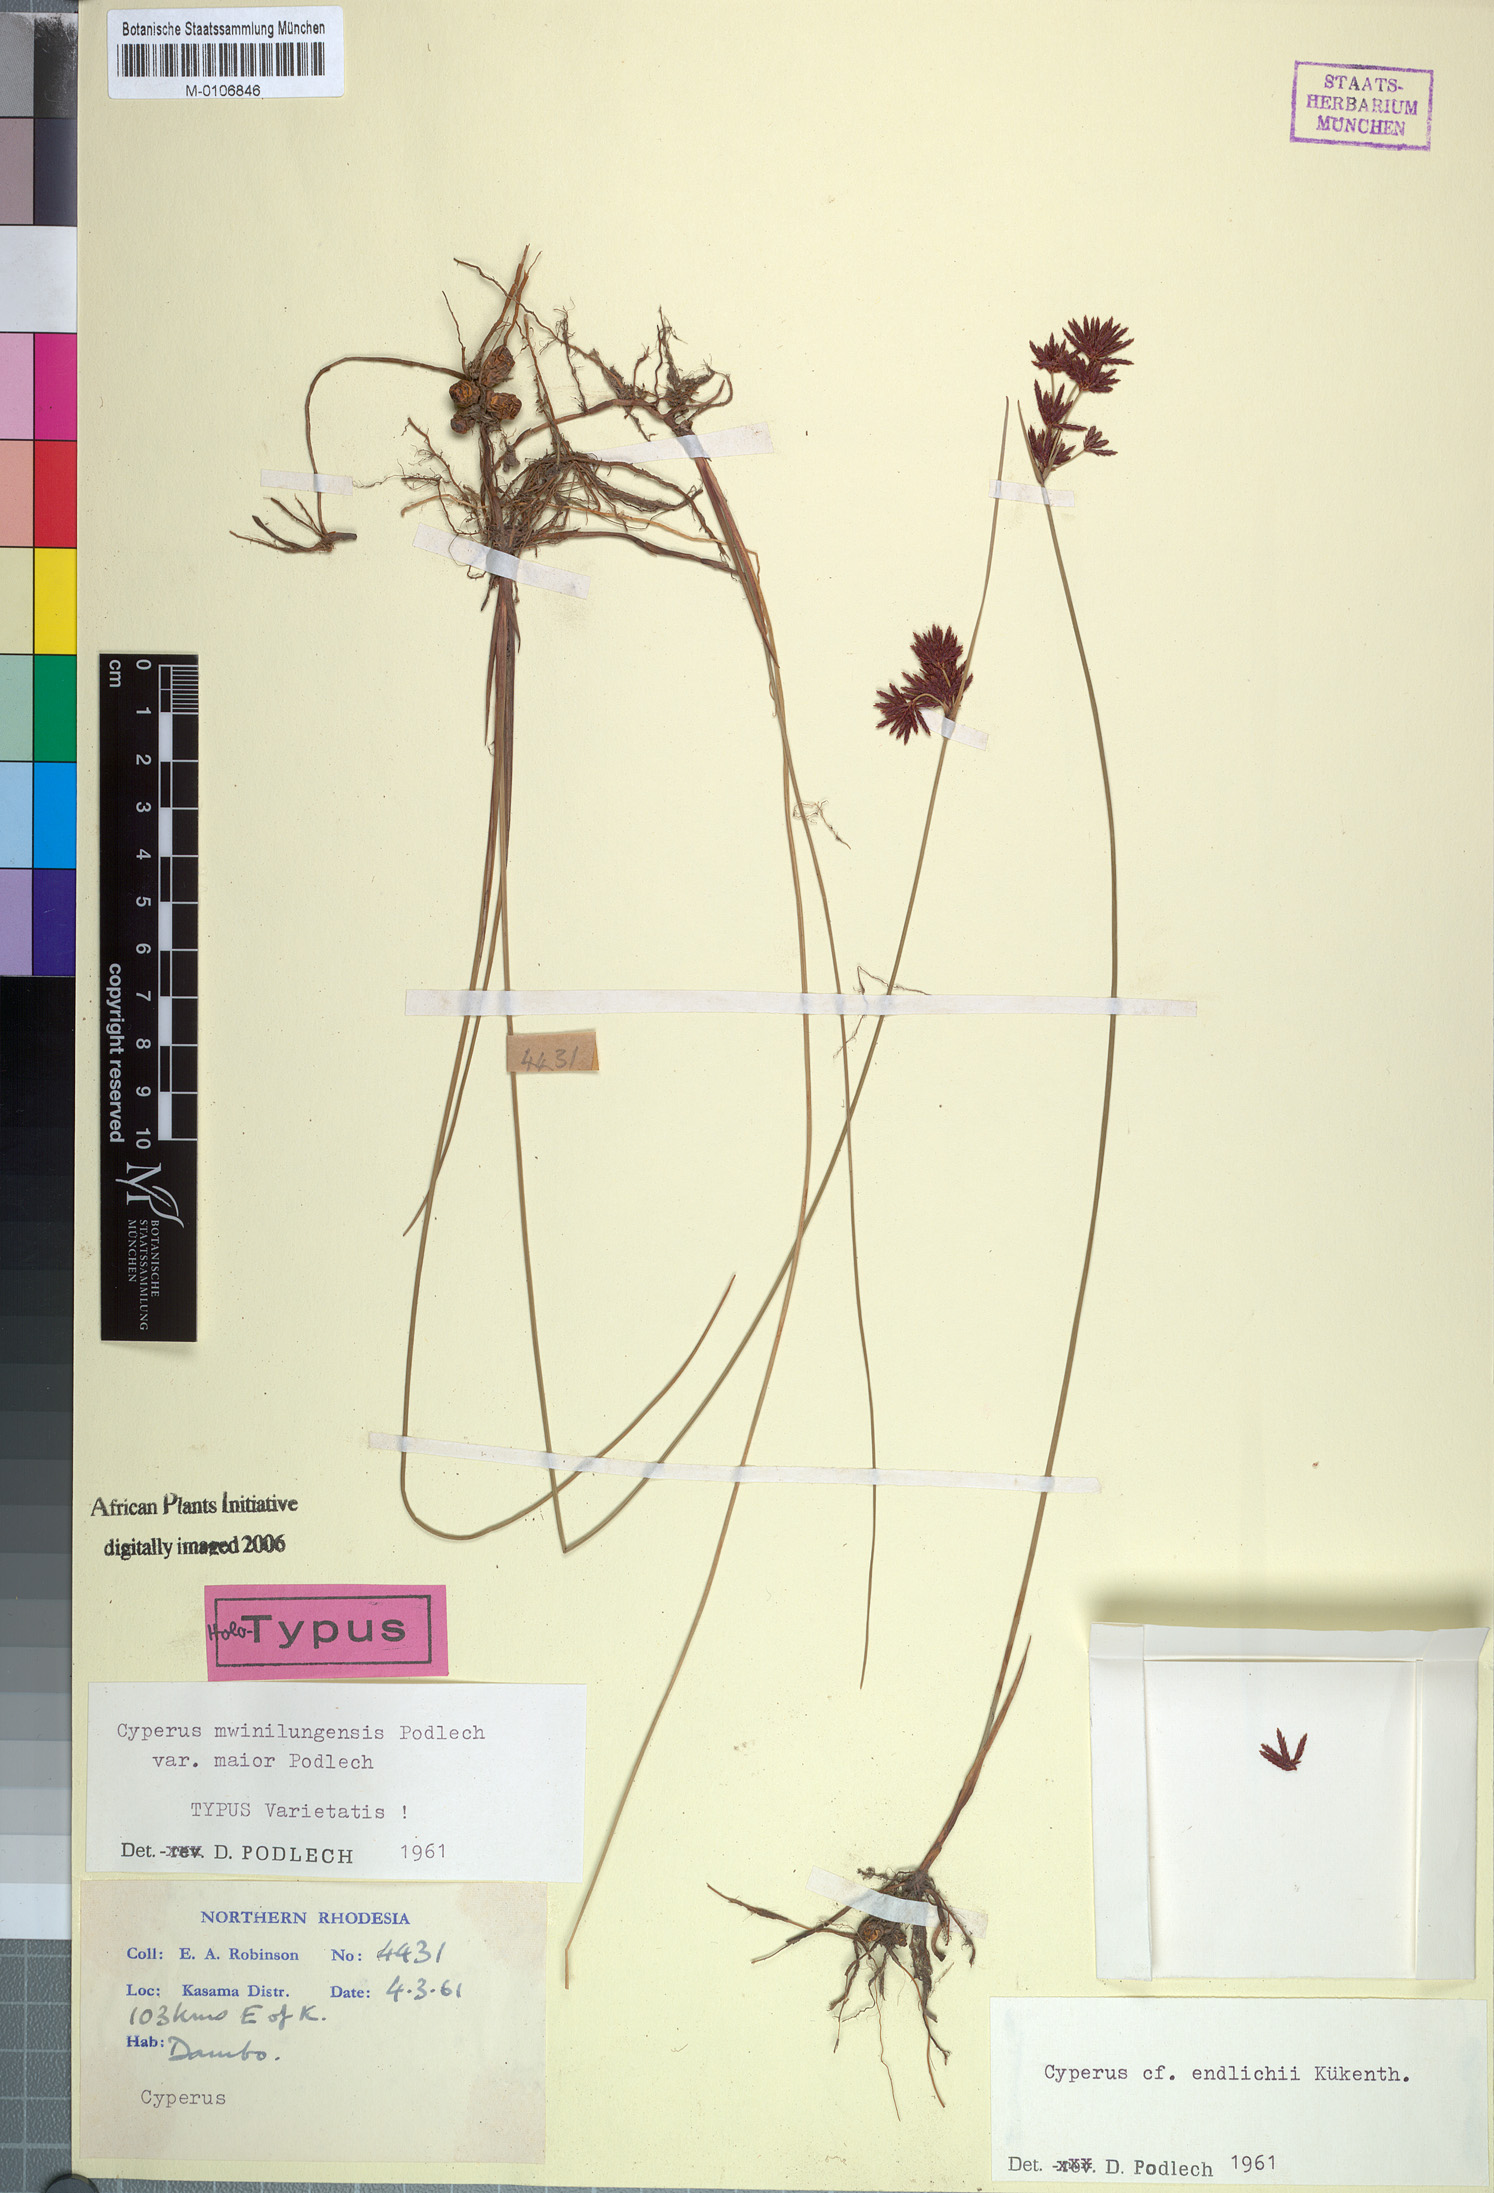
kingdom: Plantae
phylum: Tracheophyta
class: Liliopsida
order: Poales
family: Cyperaceae
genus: Cyperus
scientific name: Cyperus mwinilungensis
